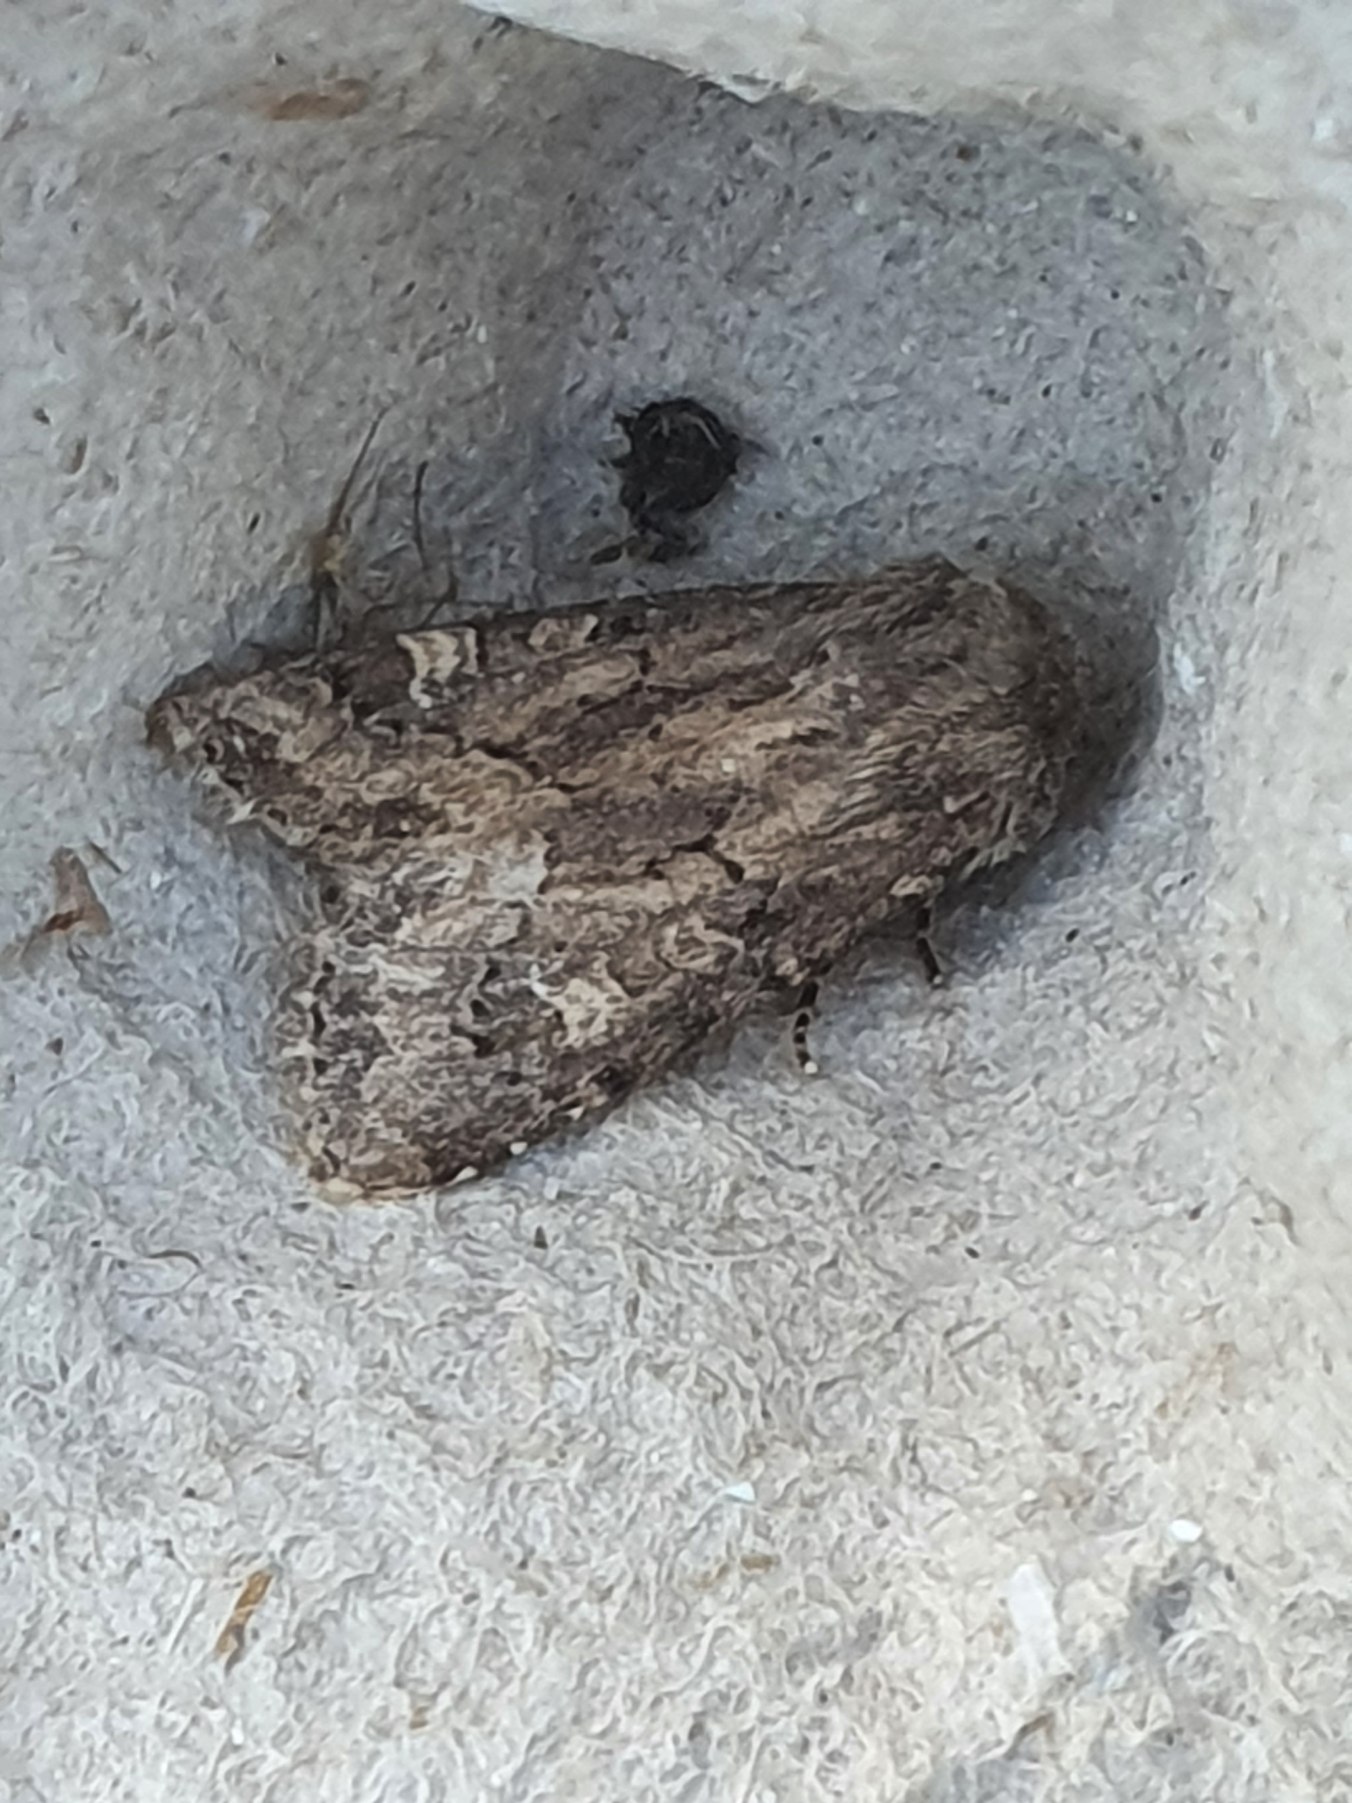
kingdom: Animalia
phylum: Arthropoda
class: Insecta
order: Lepidoptera
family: Noctuidae
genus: Luperina
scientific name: Luperina testacea
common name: Frøgræsugle
